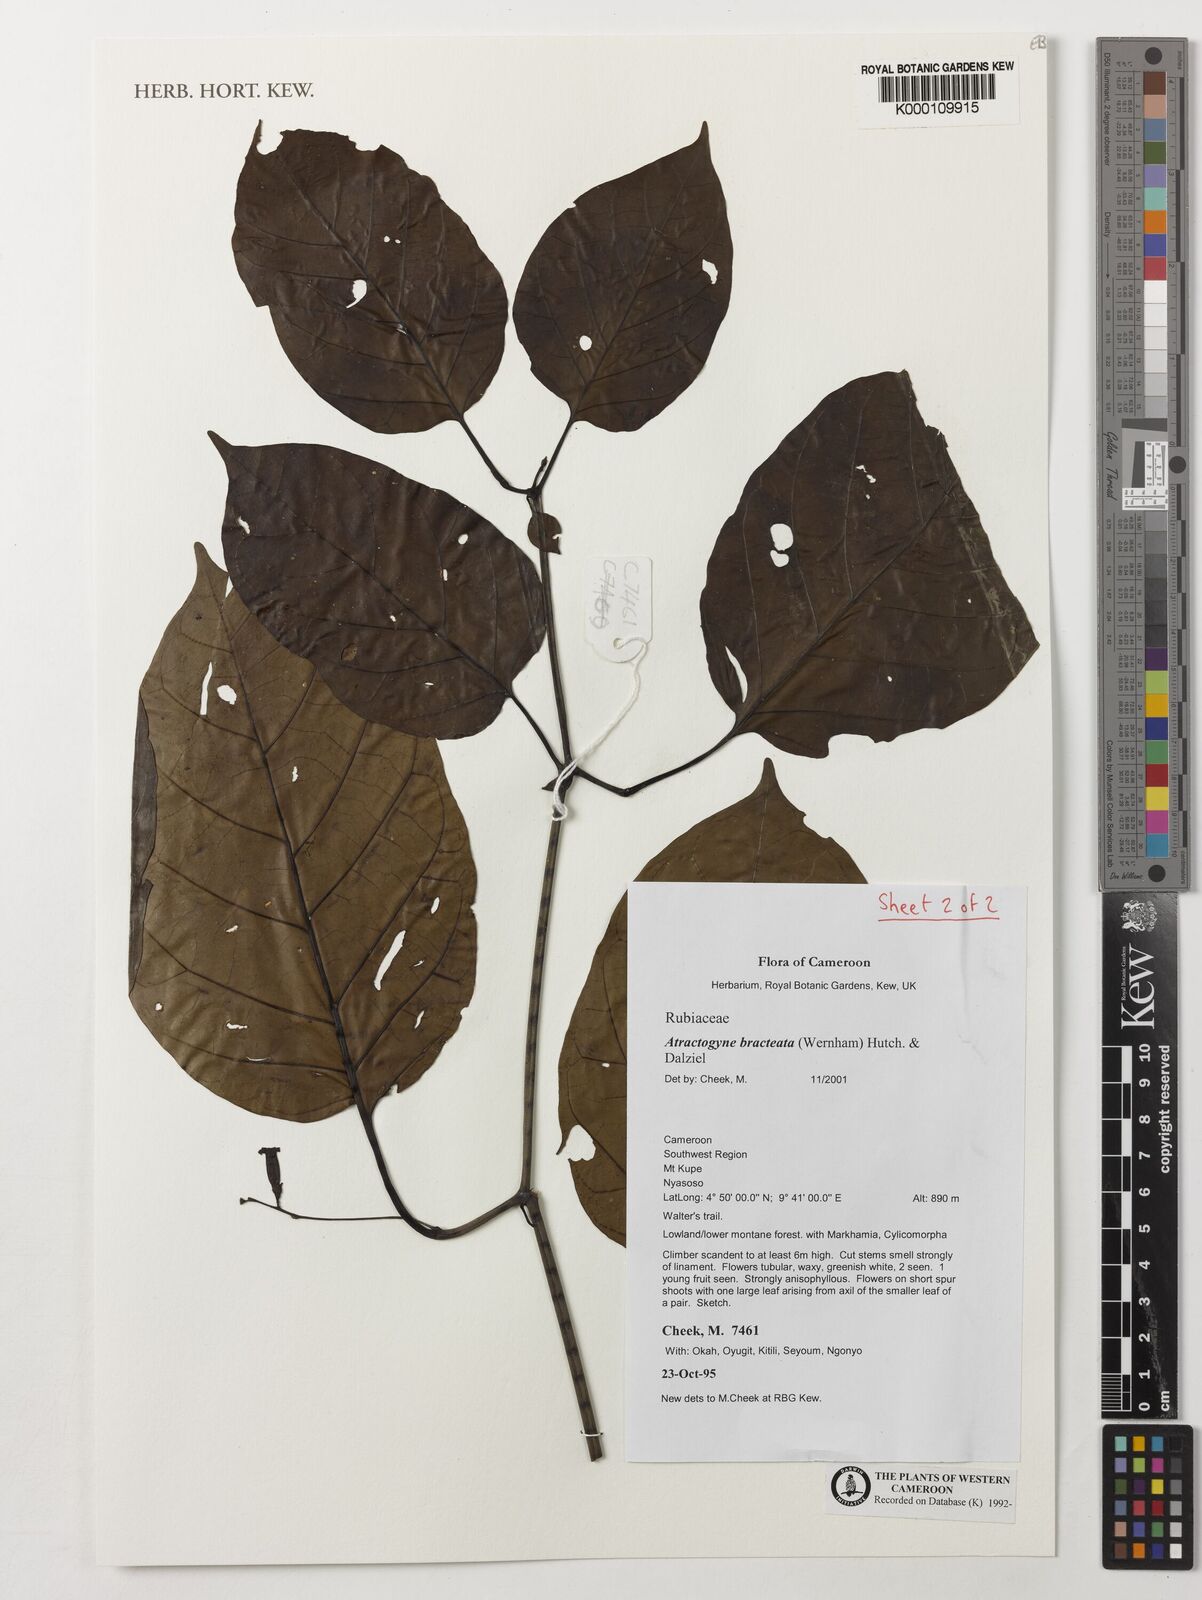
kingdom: Plantae
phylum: Tracheophyta
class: Magnoliopsida
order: Gentianales
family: Rubiaceae
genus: Atractogyne
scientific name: Atractogyne bracteata
